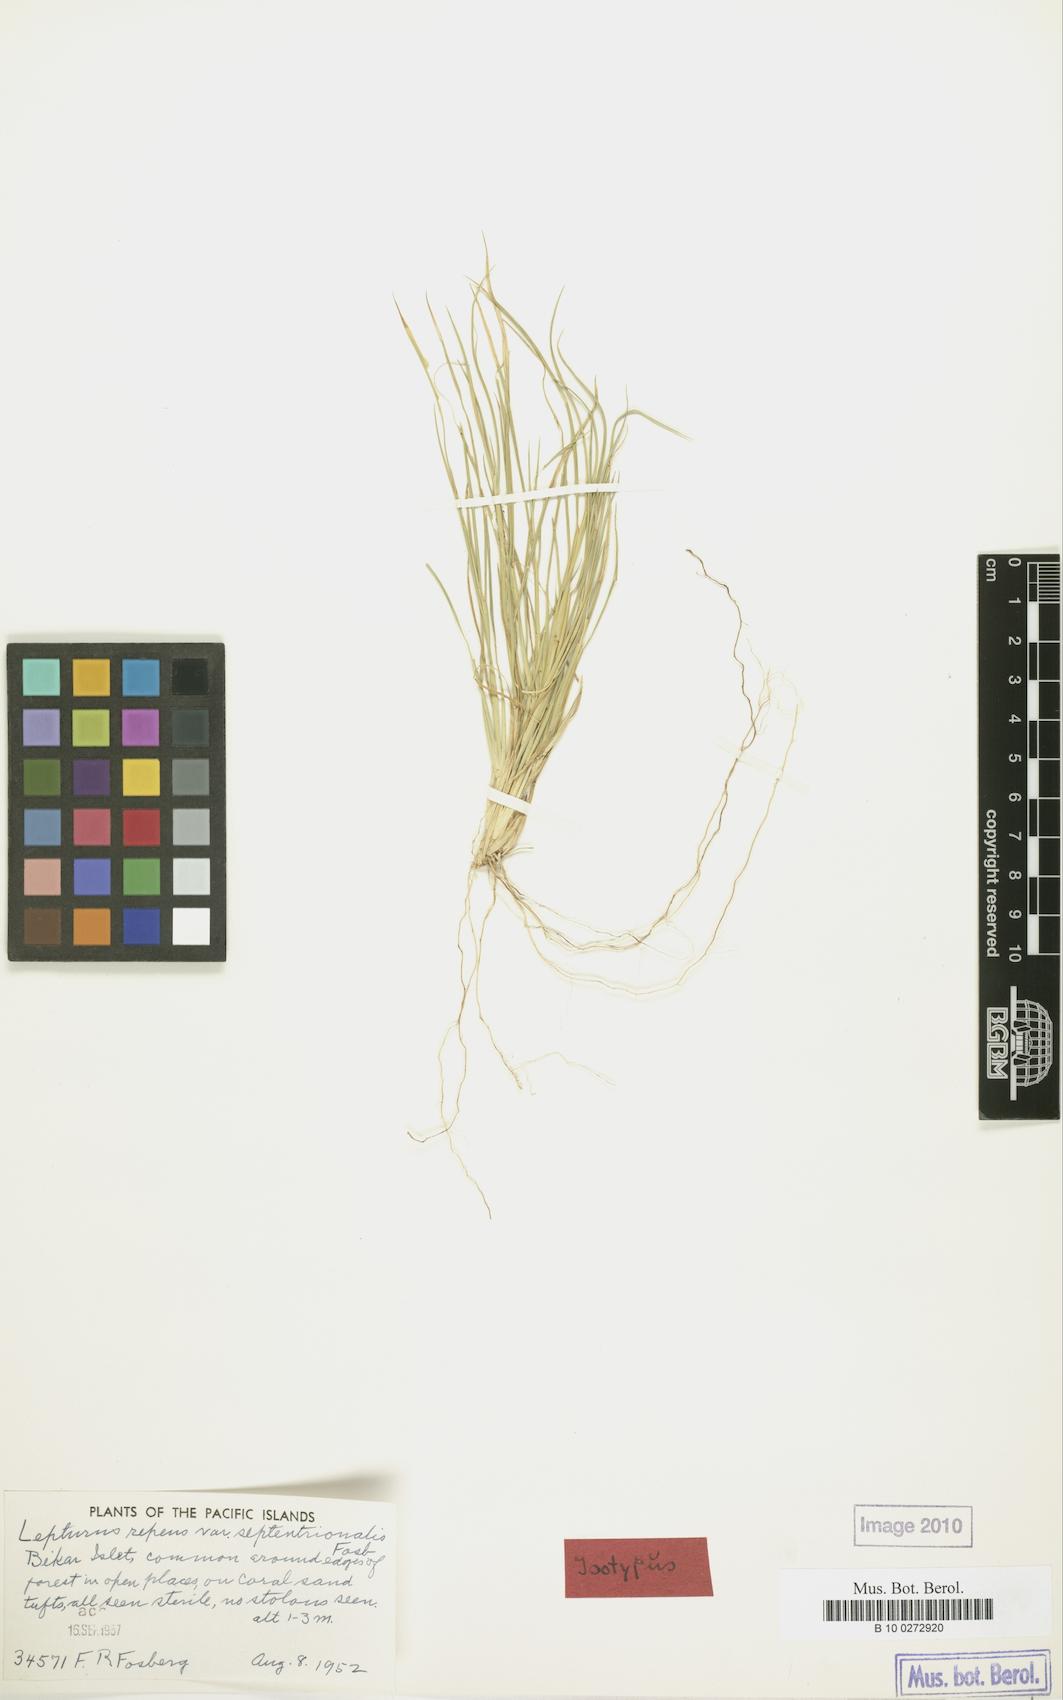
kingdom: Plantae
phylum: Tracheophyta
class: Liliopsida
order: Poales
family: Poaceae
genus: Lepturus
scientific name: Lepturus repens
